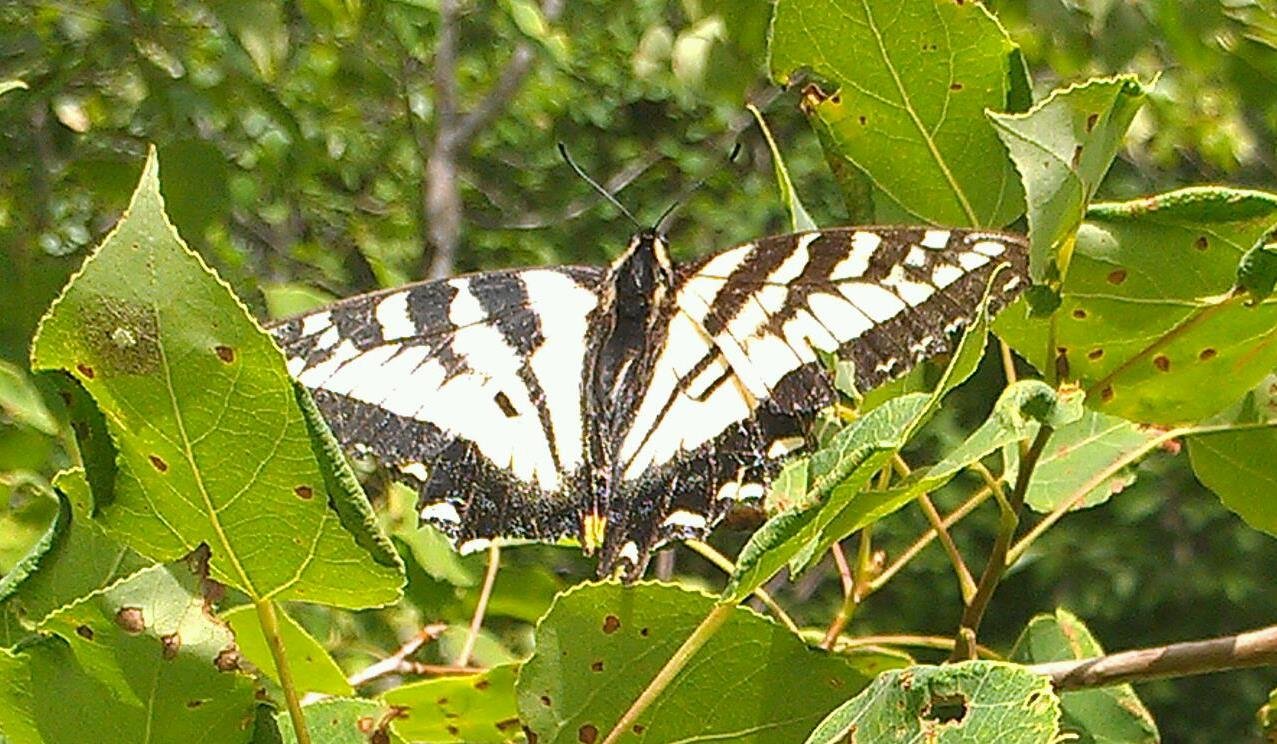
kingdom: Animalia
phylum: Arthropoda
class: Insecta
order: Lepidoptera
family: Papilionidae
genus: Pterourus
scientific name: Pterourus canadensis
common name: Canadian Tiger Swallowtail
